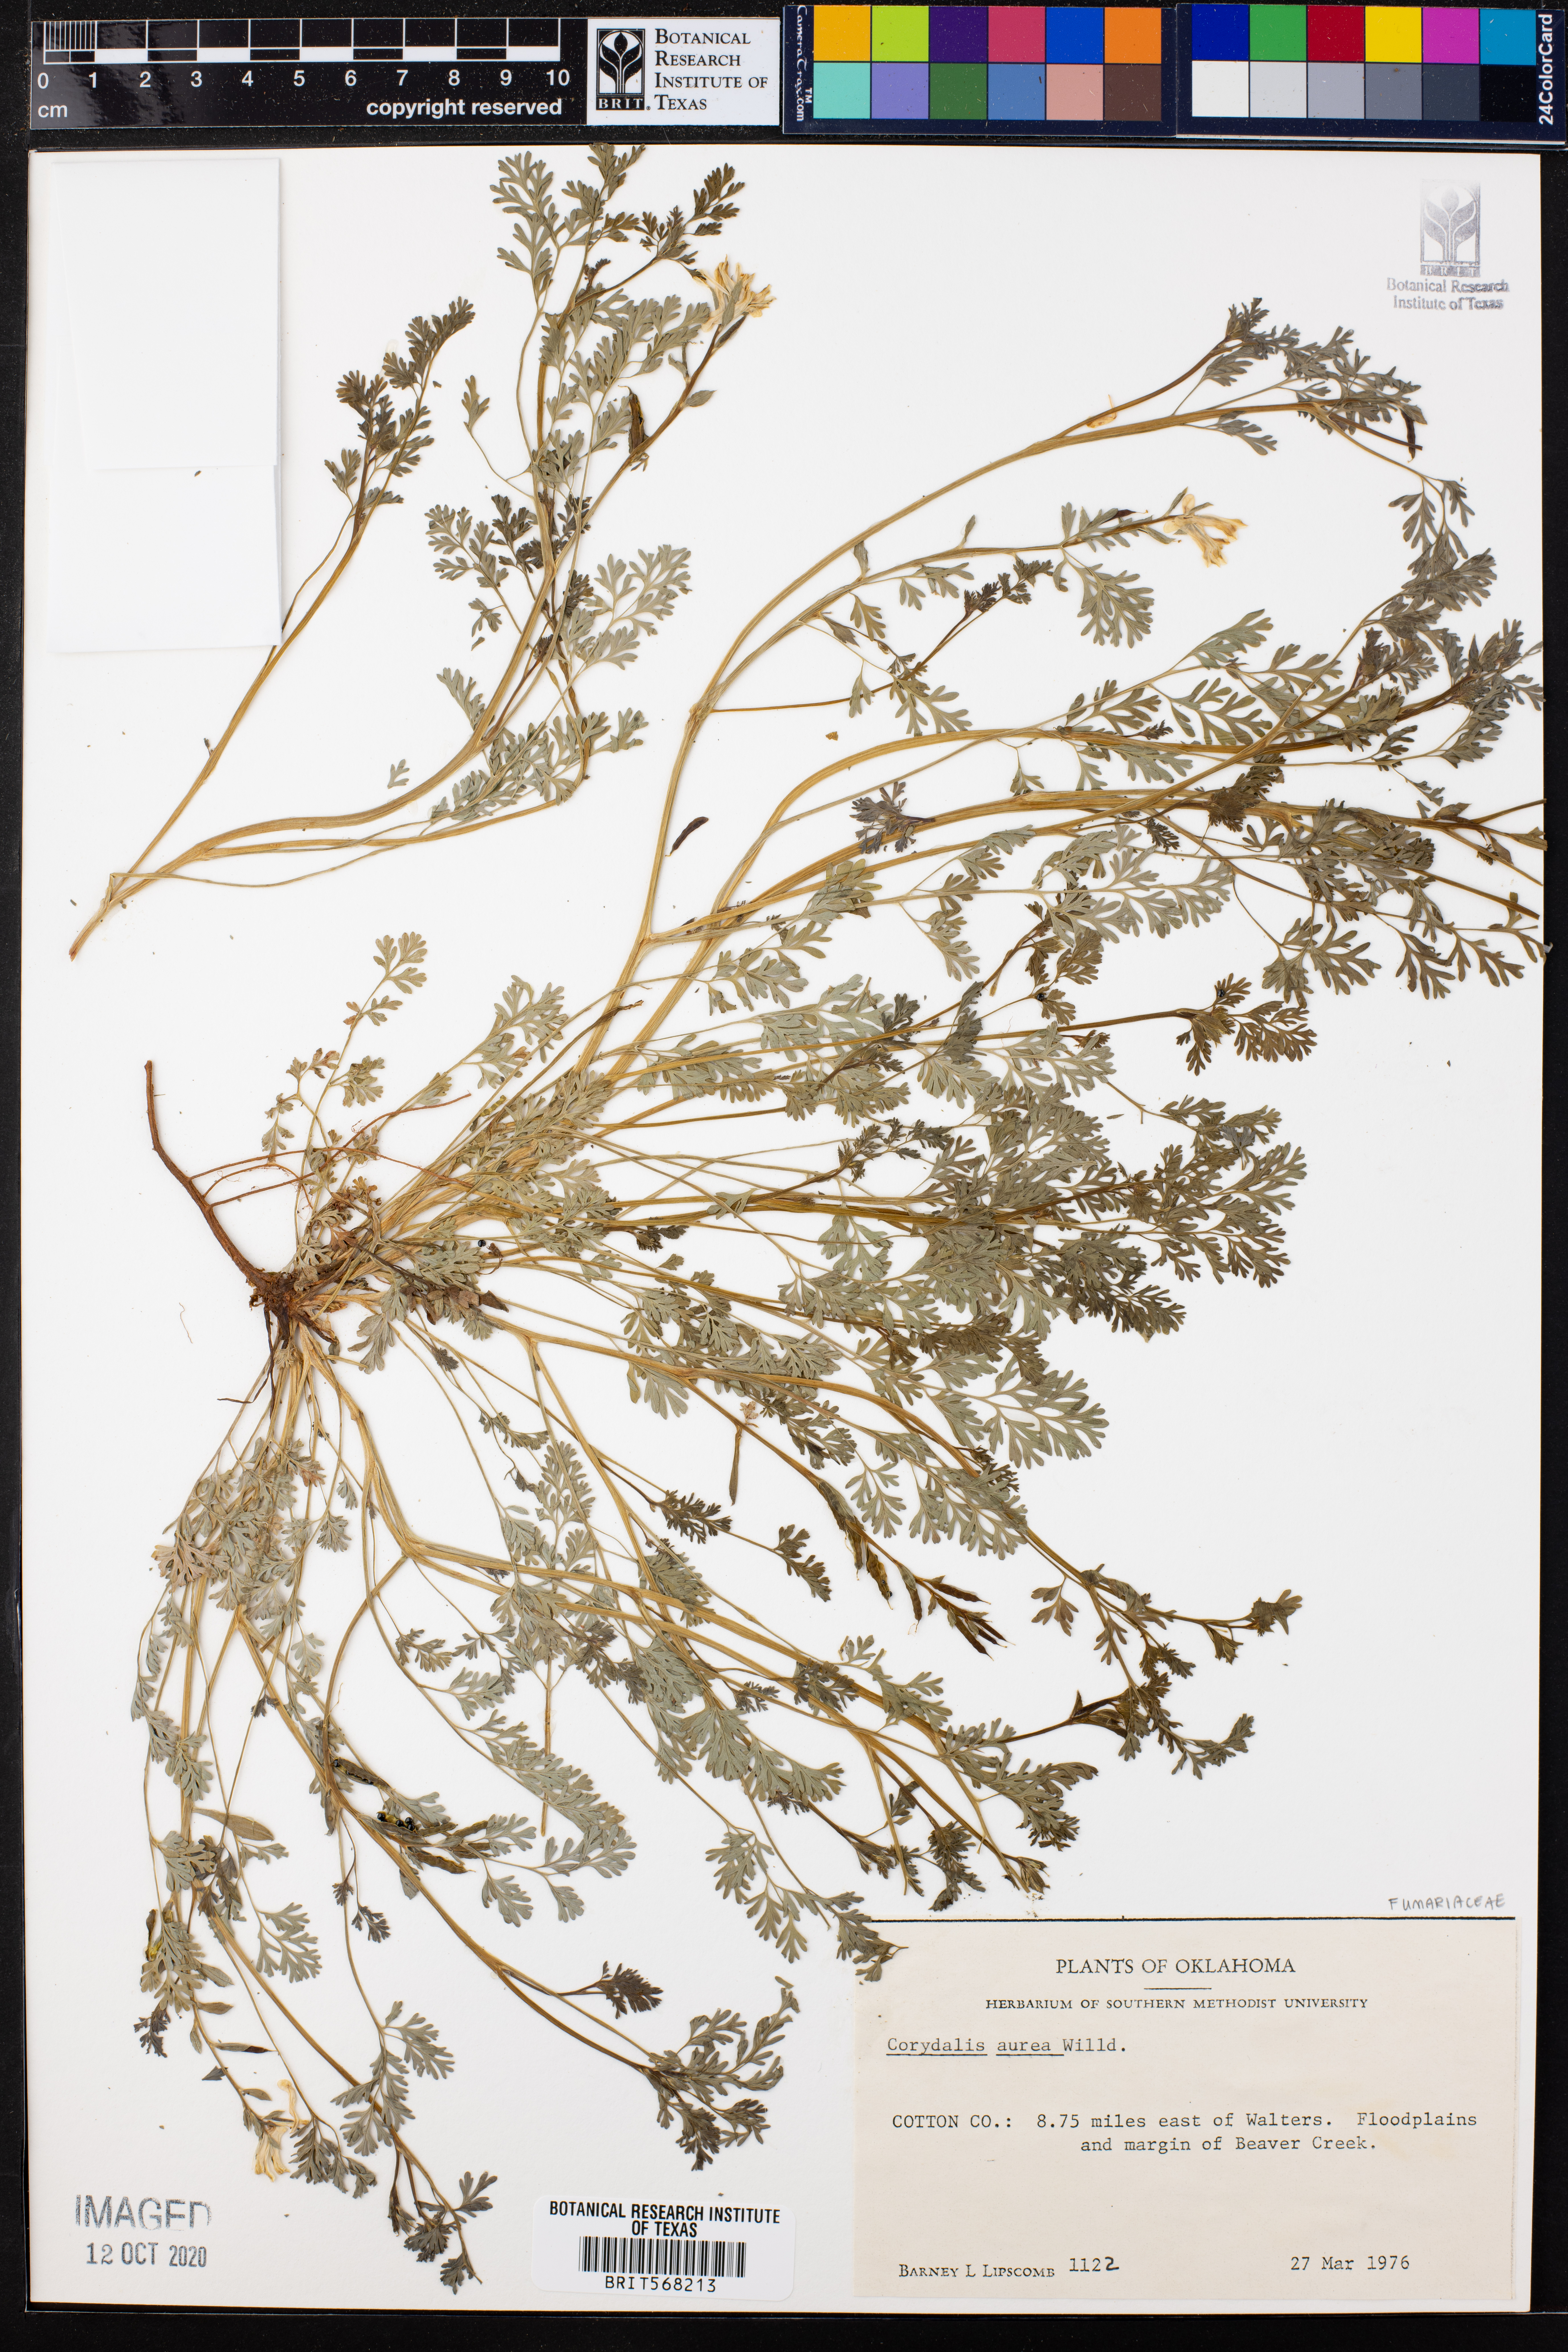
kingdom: Plantae
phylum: Tracheophyta
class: Magnoliopsida
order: Ranunculales
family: Papaveraceae
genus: Corydalis
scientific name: Corydalis aurea
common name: Golden corydalis
